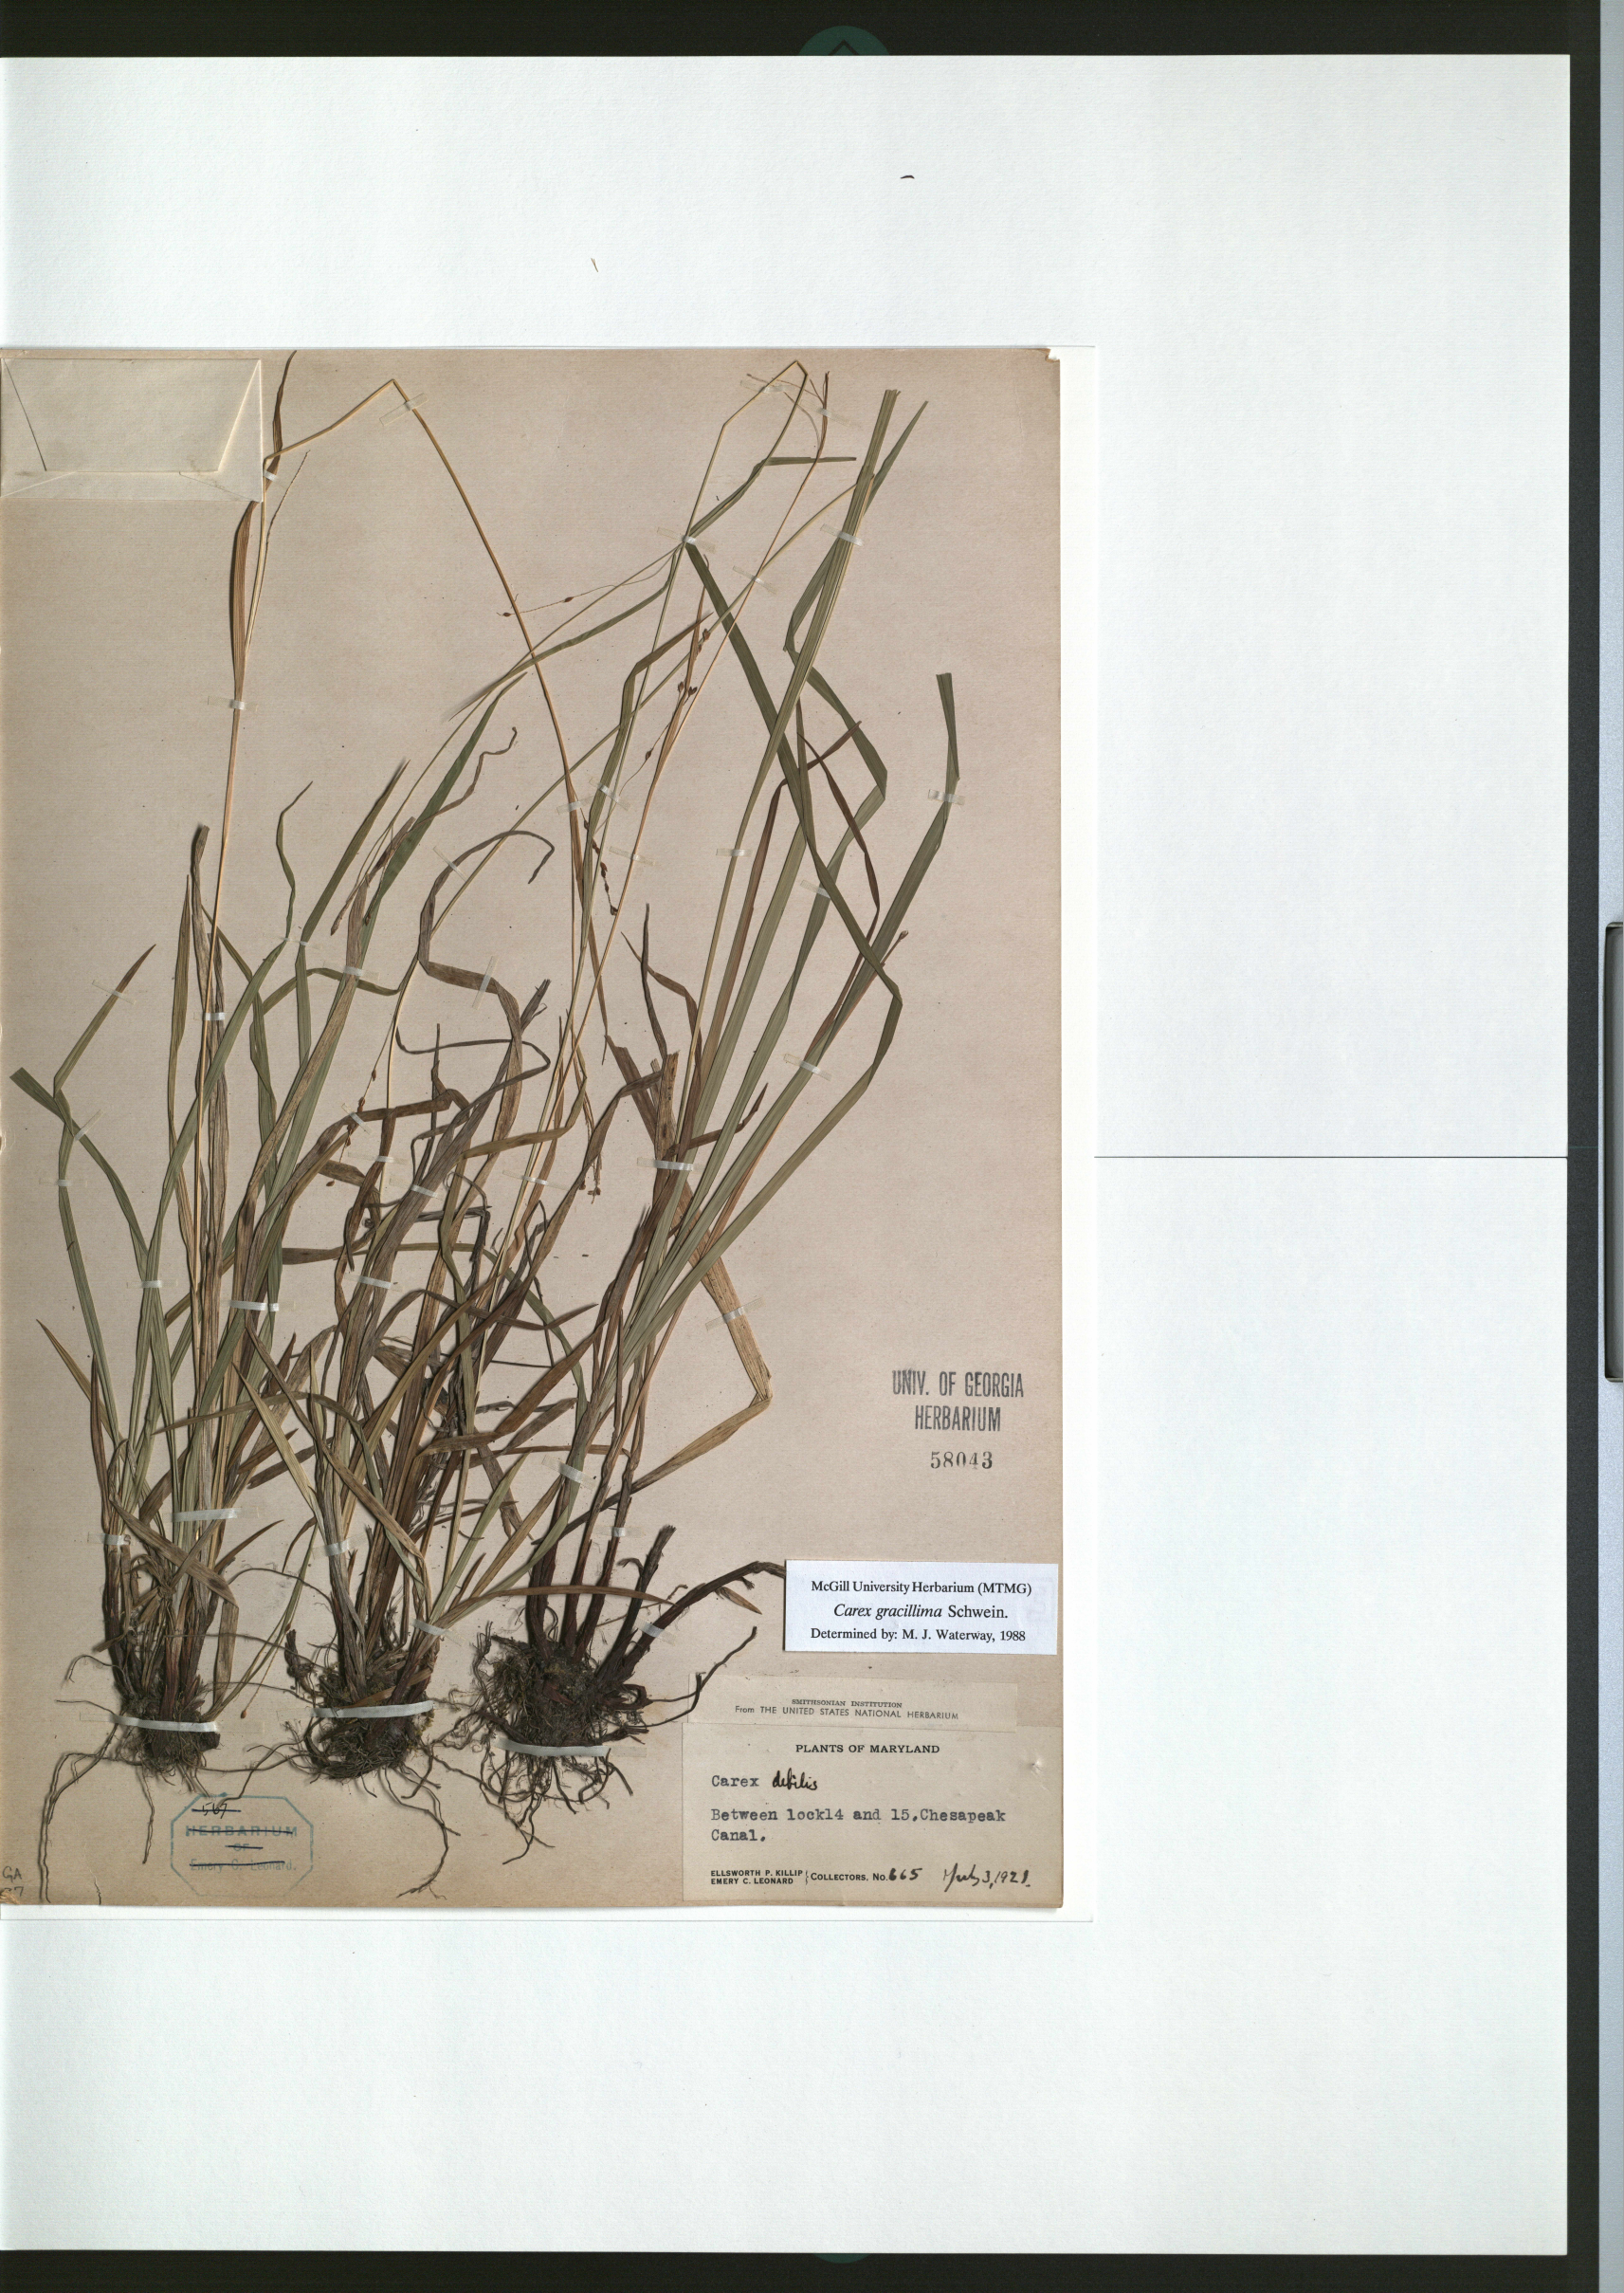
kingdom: Plantae
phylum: Tracheophyta
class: Liliopsida
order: Poales
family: Cyperaceae
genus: Carex
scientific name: Carex gracillima
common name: Graceful sedge
